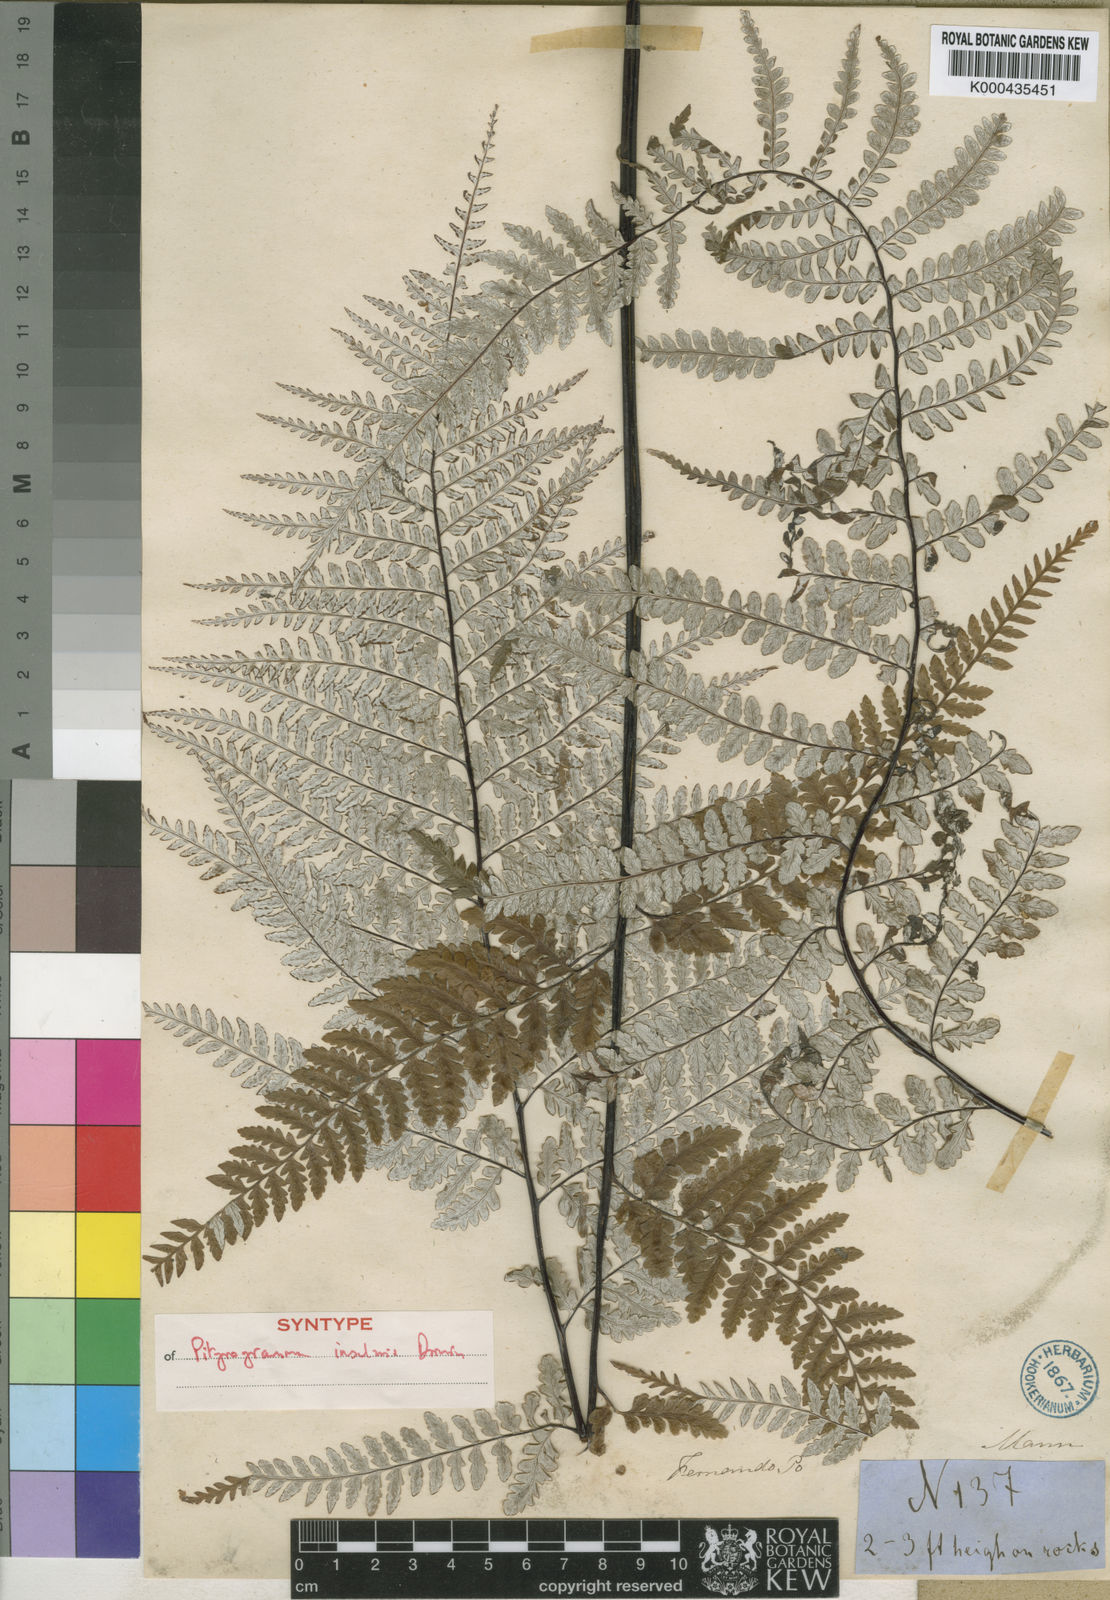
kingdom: Plantae
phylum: Tracheophyta
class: Polypodiopsida
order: Polypodiales
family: Pteridaceae
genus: Pityrogramma
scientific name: Pityrogramma calomelanos
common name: Dixie silverback fern
